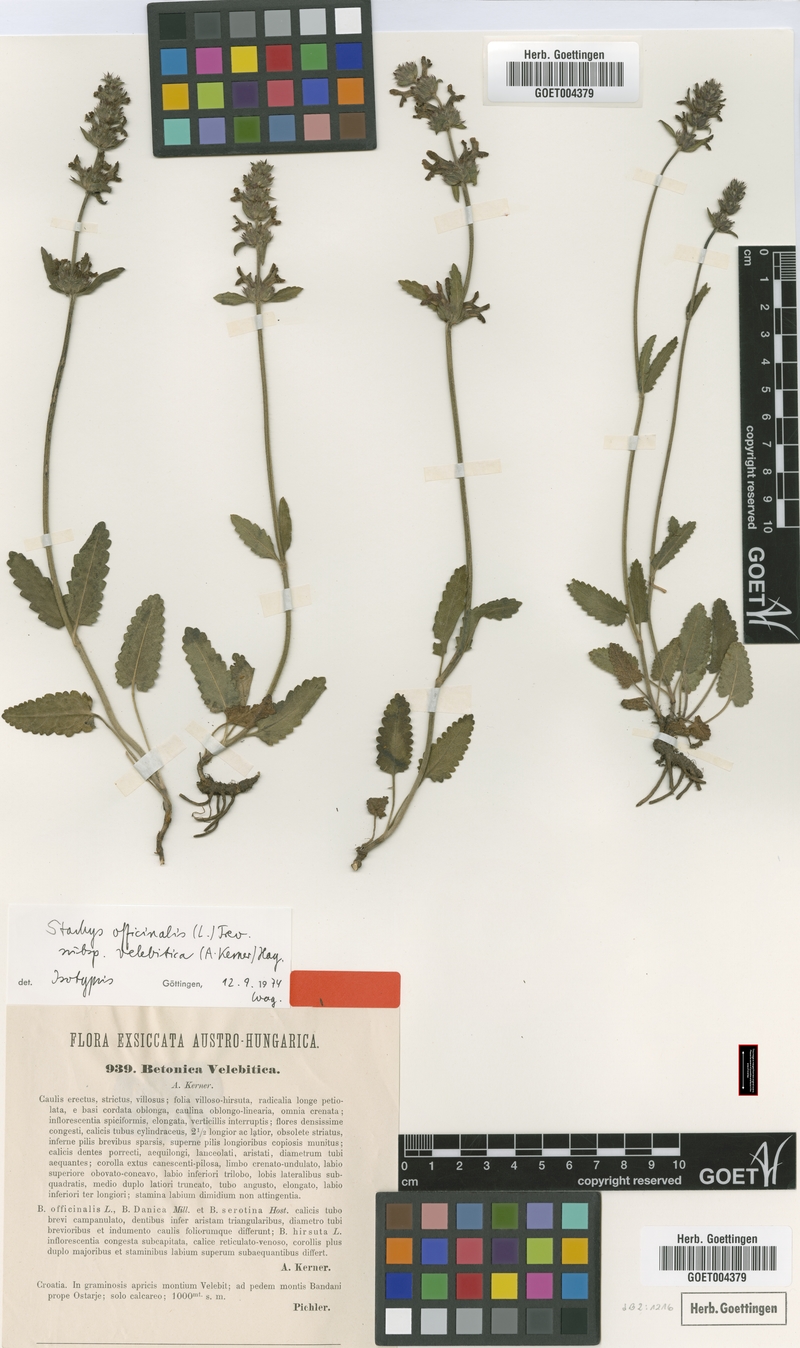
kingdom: Plantae
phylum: Tracheophyta
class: Magnoliopsida
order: Lamiales
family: Lamiaceae
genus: Betonica
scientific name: Betonica officinalis
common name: Bishop's-wort
